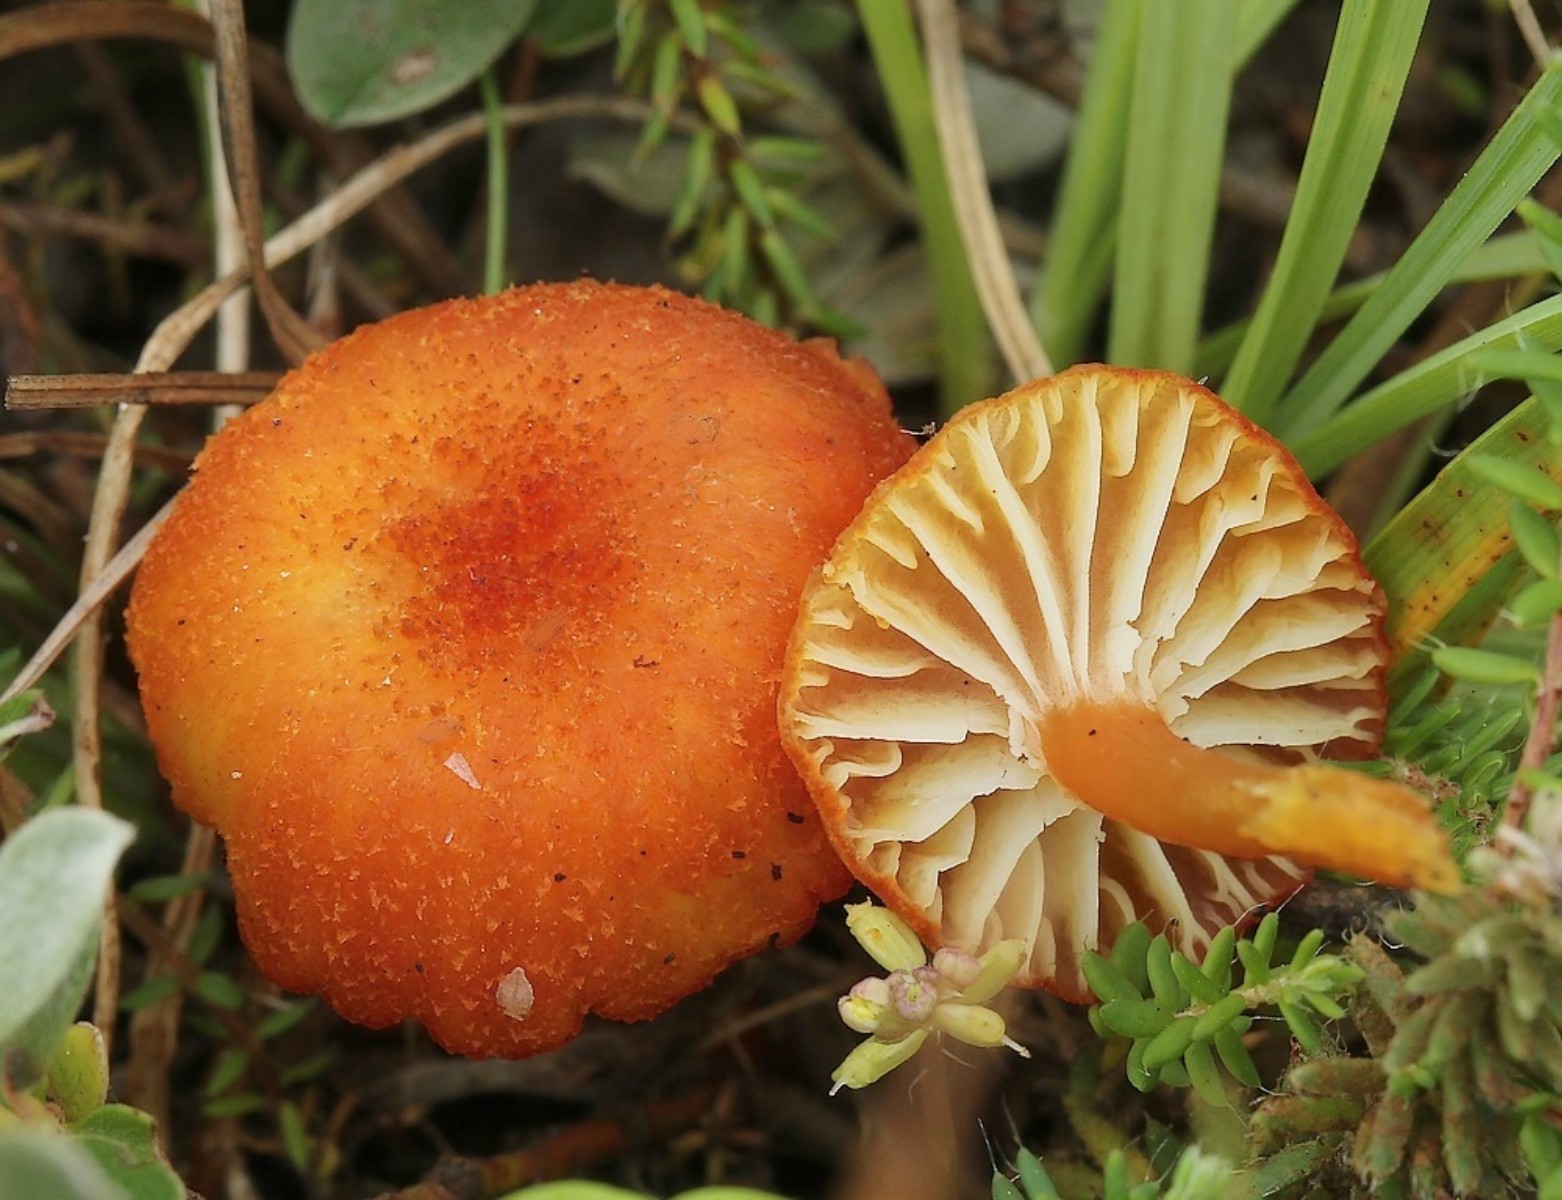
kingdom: Fungi
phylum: Basidiomycota
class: Agaricomycetes
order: Agaricales
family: Hygrophoraceae
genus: Hygrocybe
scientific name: Hygrocybe coccineocrenata
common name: tørvemos-vokshat
